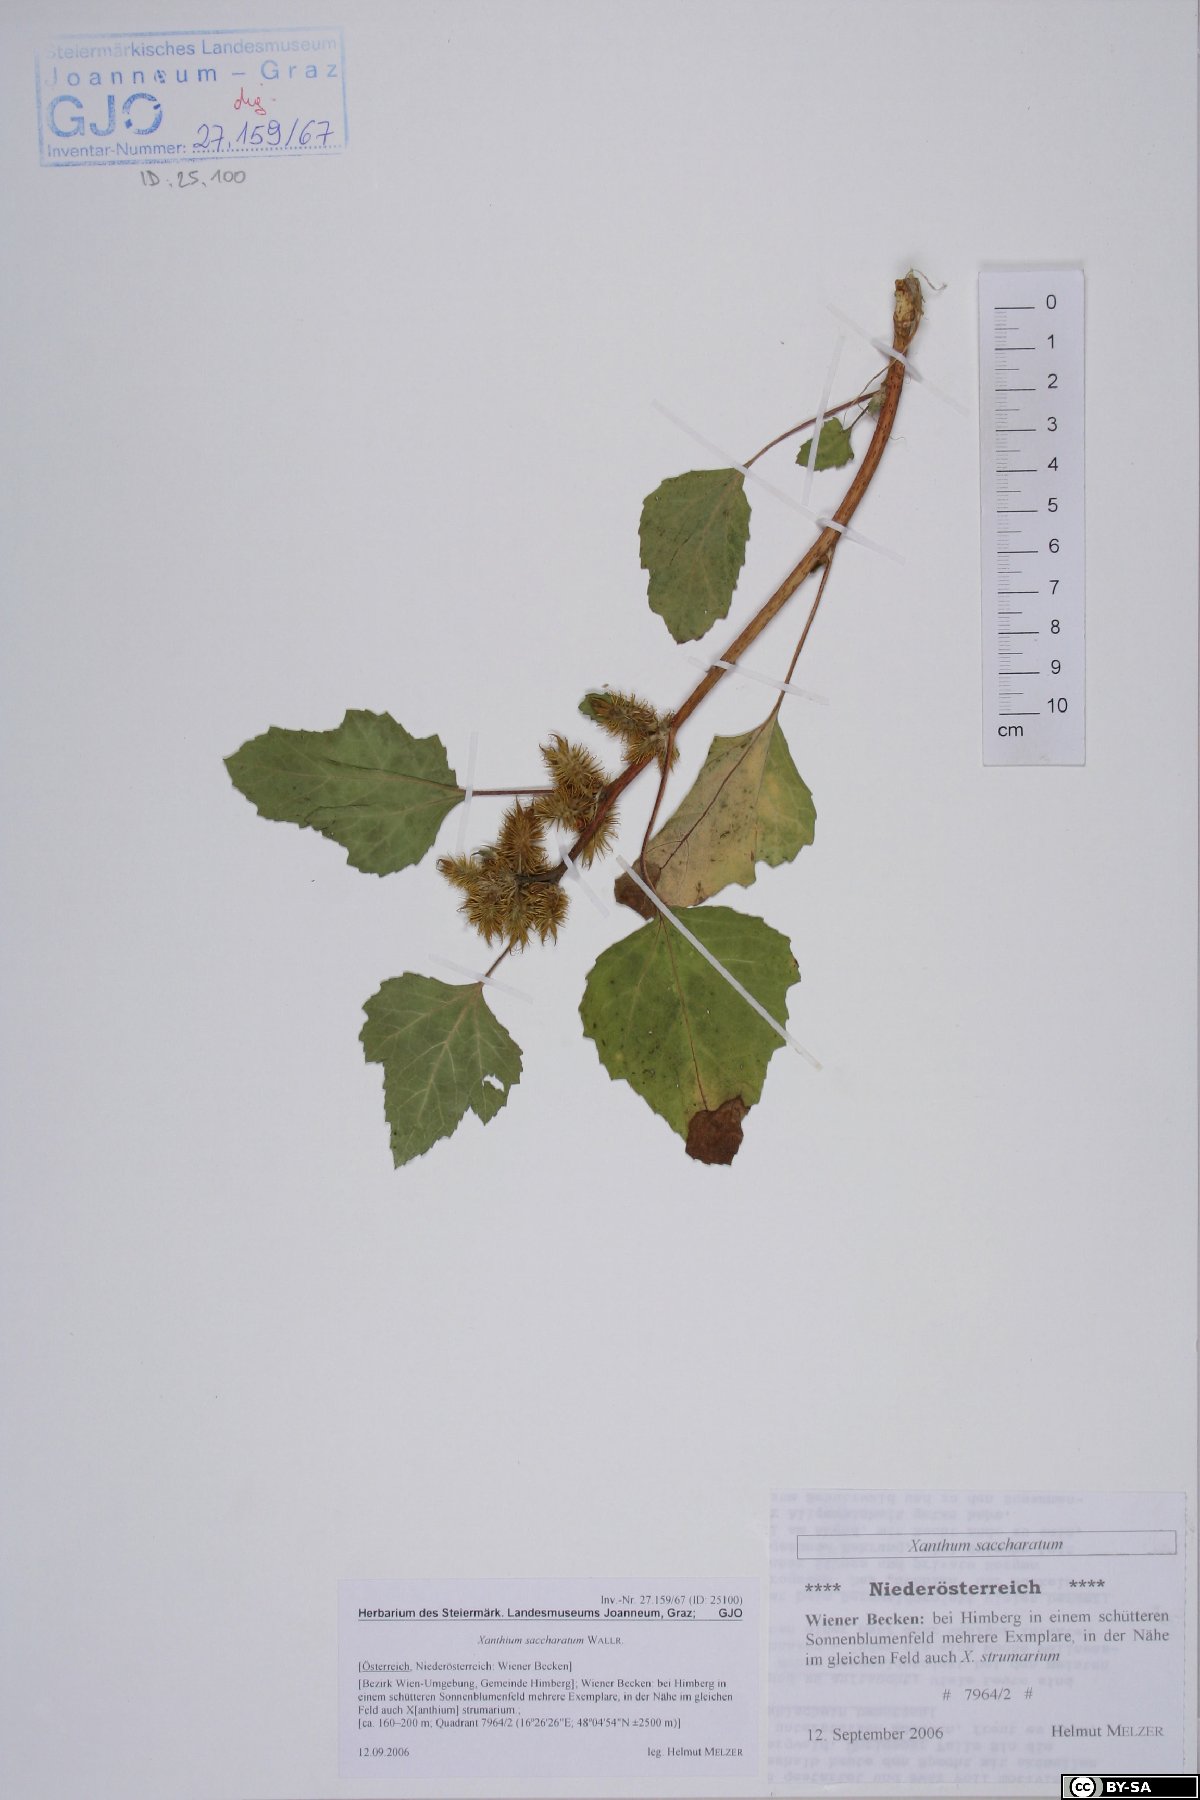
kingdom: Plantae
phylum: Tracheophyta
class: Magnoliopsida
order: Asterales
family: Asteraceae
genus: Xanthium
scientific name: Xanthium orientale
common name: Californian burr
